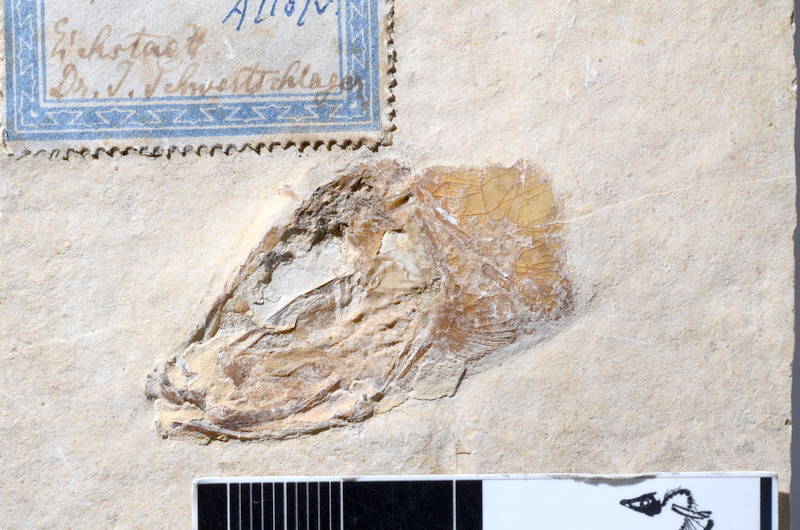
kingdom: Animalia
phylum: Chordata
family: Allothrissopidae
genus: Allothrissops
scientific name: Allothrissops
